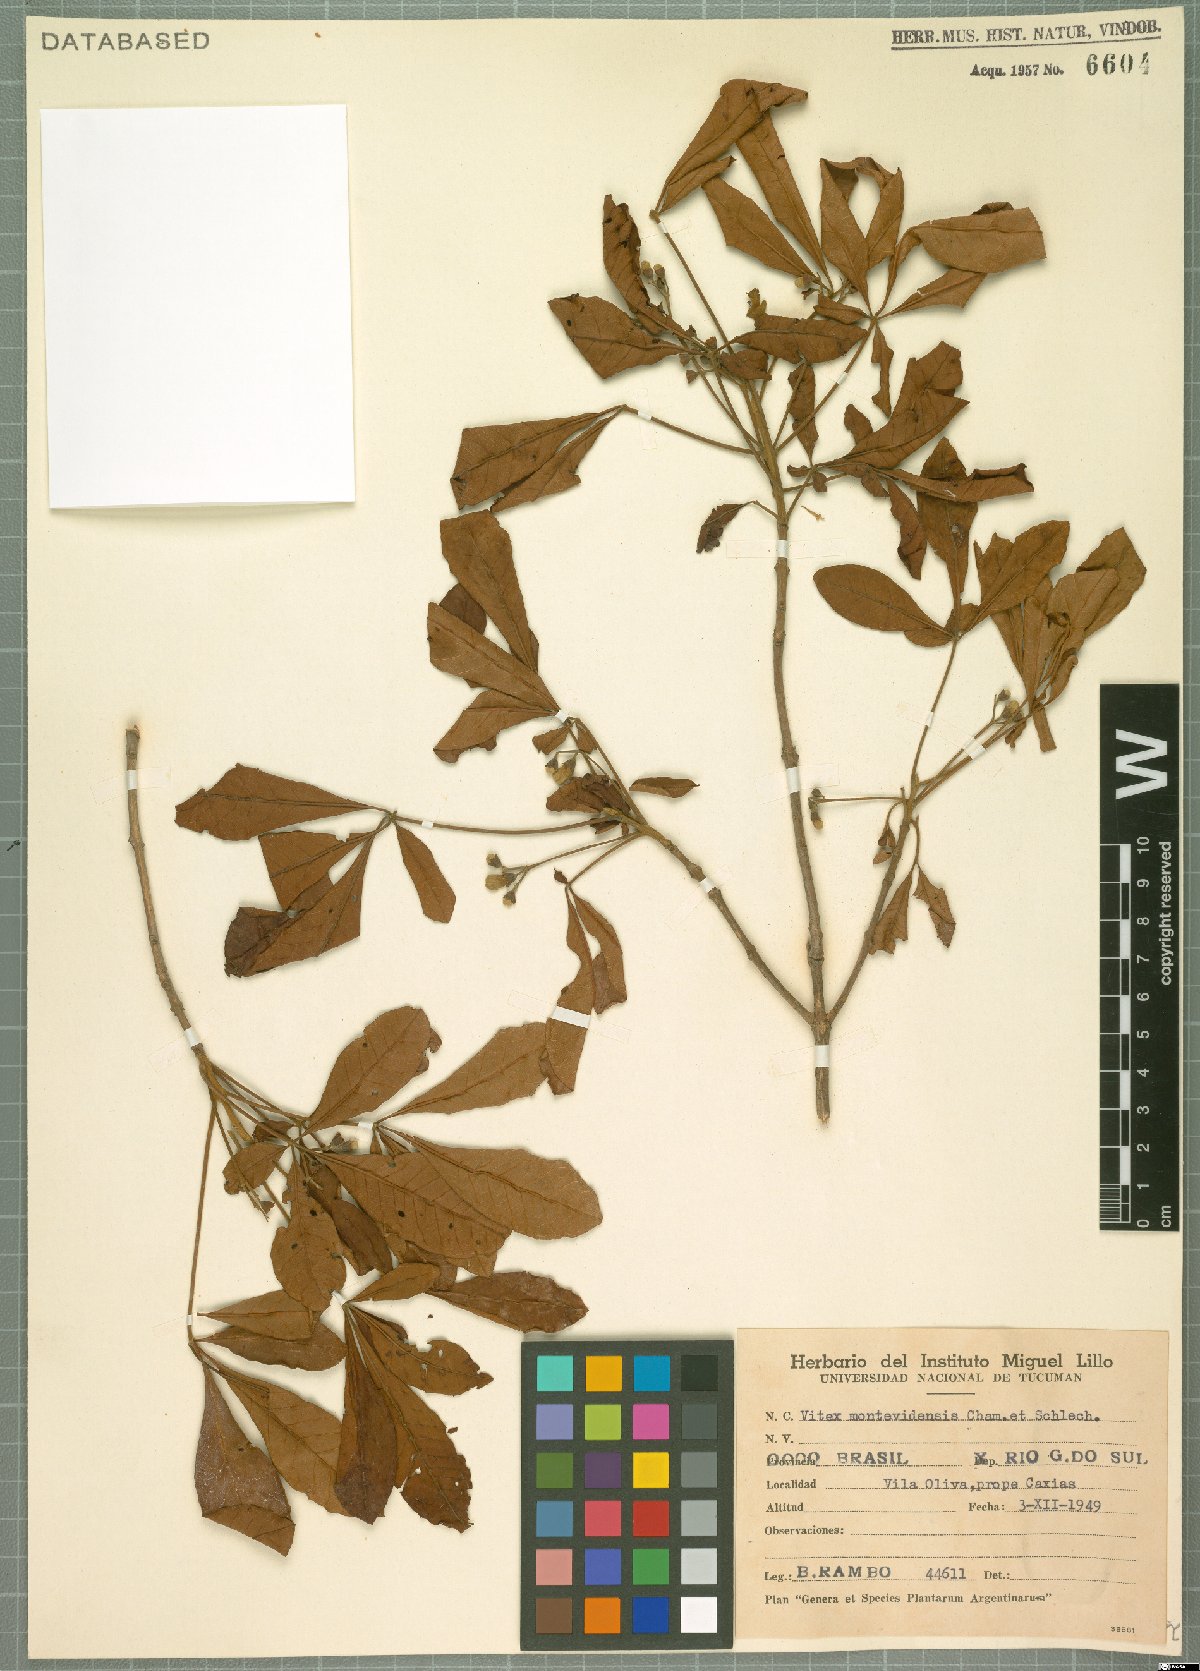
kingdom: Plantae
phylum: Tracheophyta
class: Magnoliopsida
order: Lamiales
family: Lamiaceae
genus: Vitex
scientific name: Vitex megapotamica
